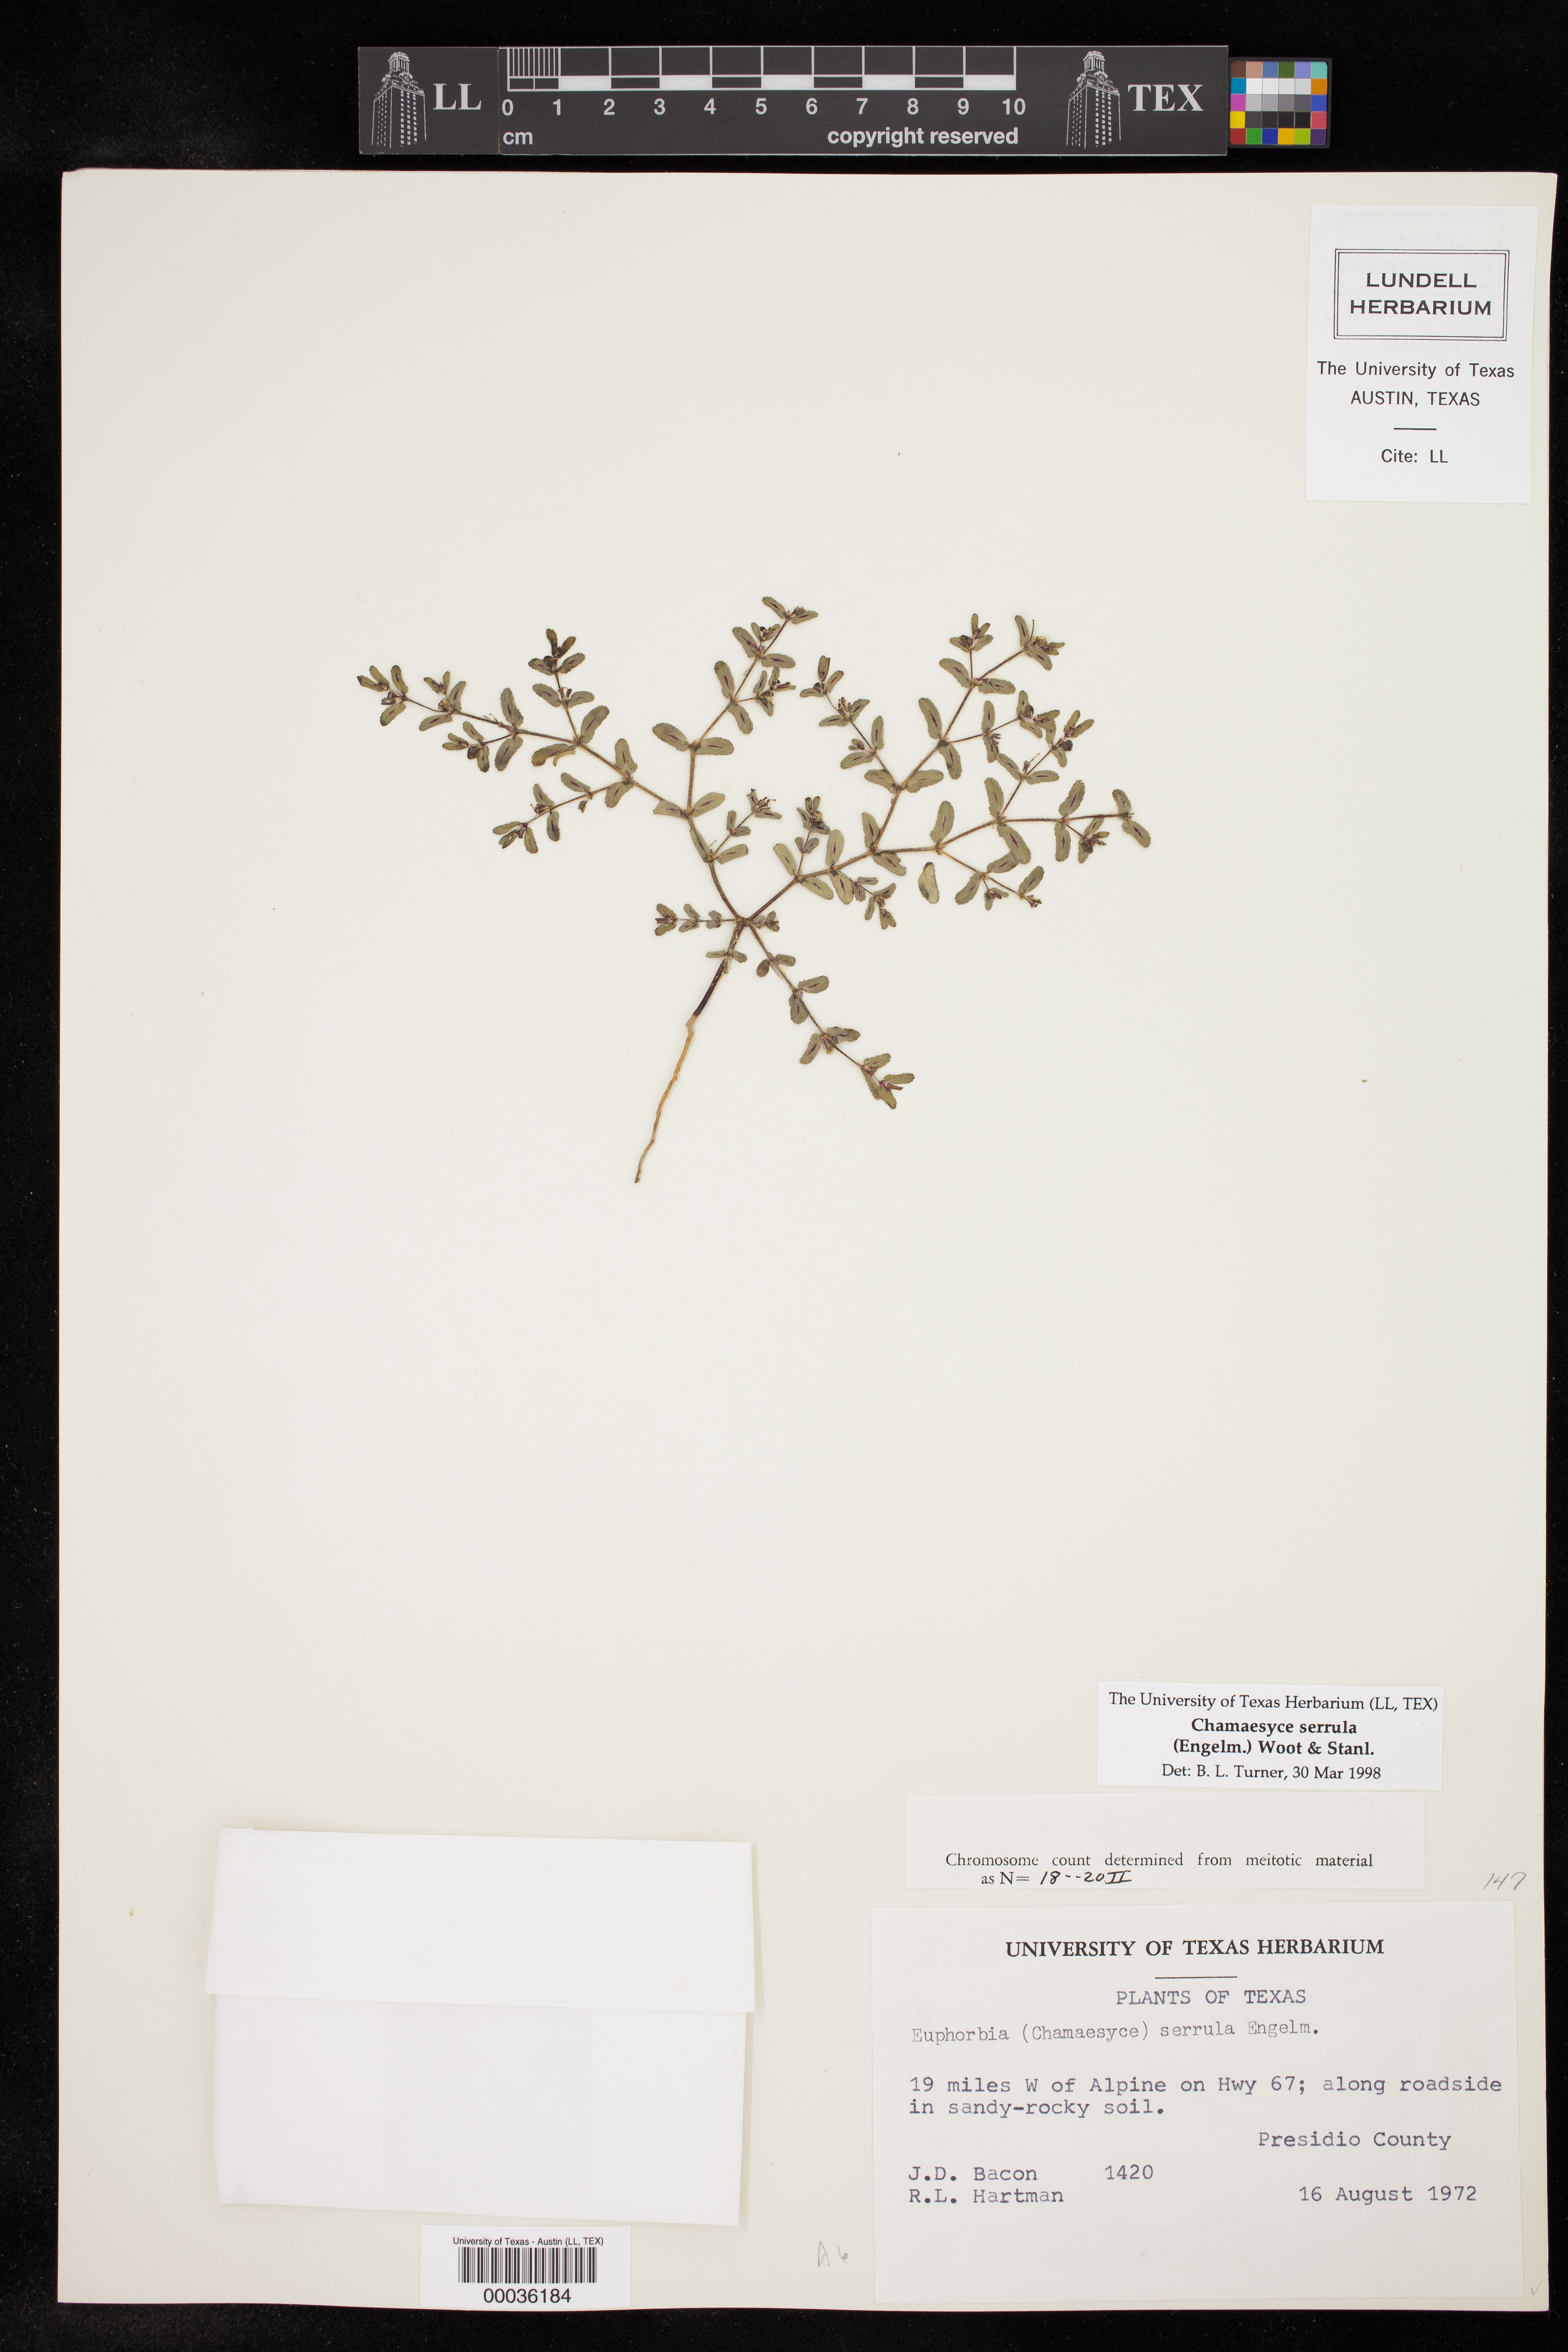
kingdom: Plantae
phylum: Tracheophyta
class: Magnoliopsida
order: Malpighiales
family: Euphorbiaceae
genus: Euphorbia
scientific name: Euphorbia serrula
